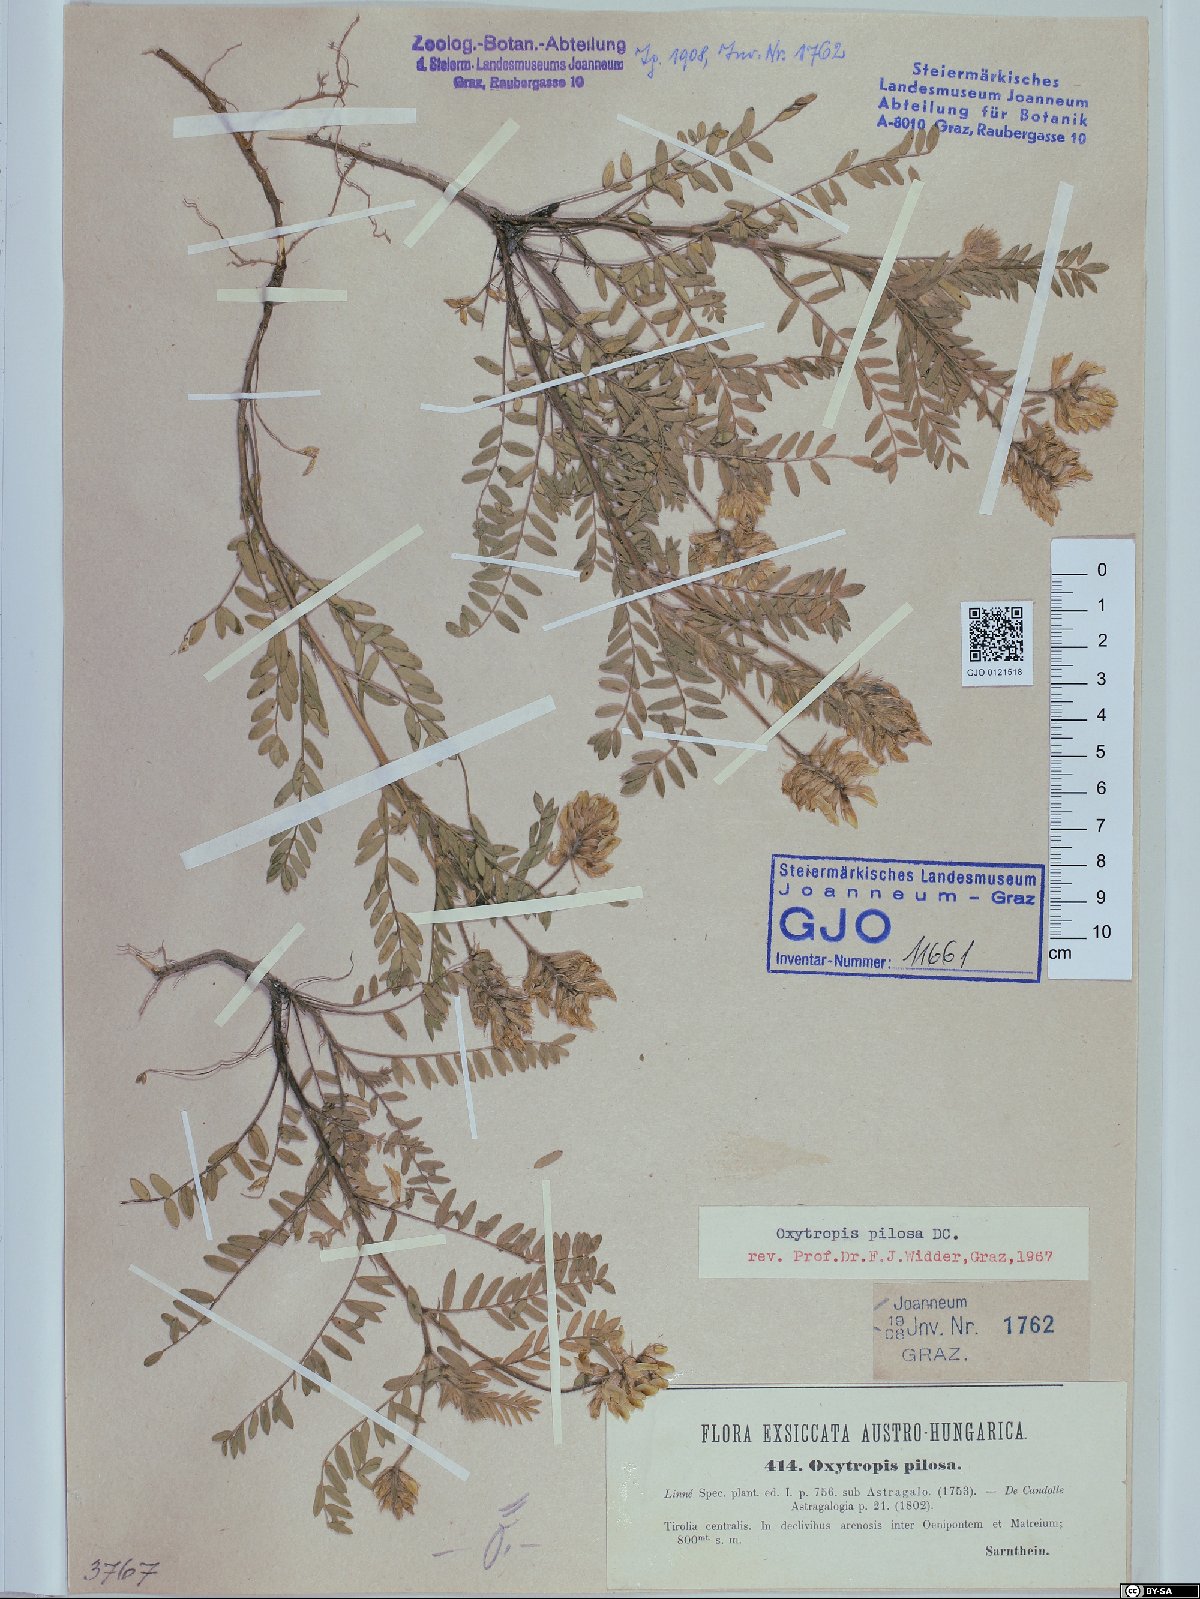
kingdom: Plantae
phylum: Tracheophyta
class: Magnoliopsida
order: Fabales
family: Fabaceae
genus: Oxytropis
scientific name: Oxytropis pilosa
